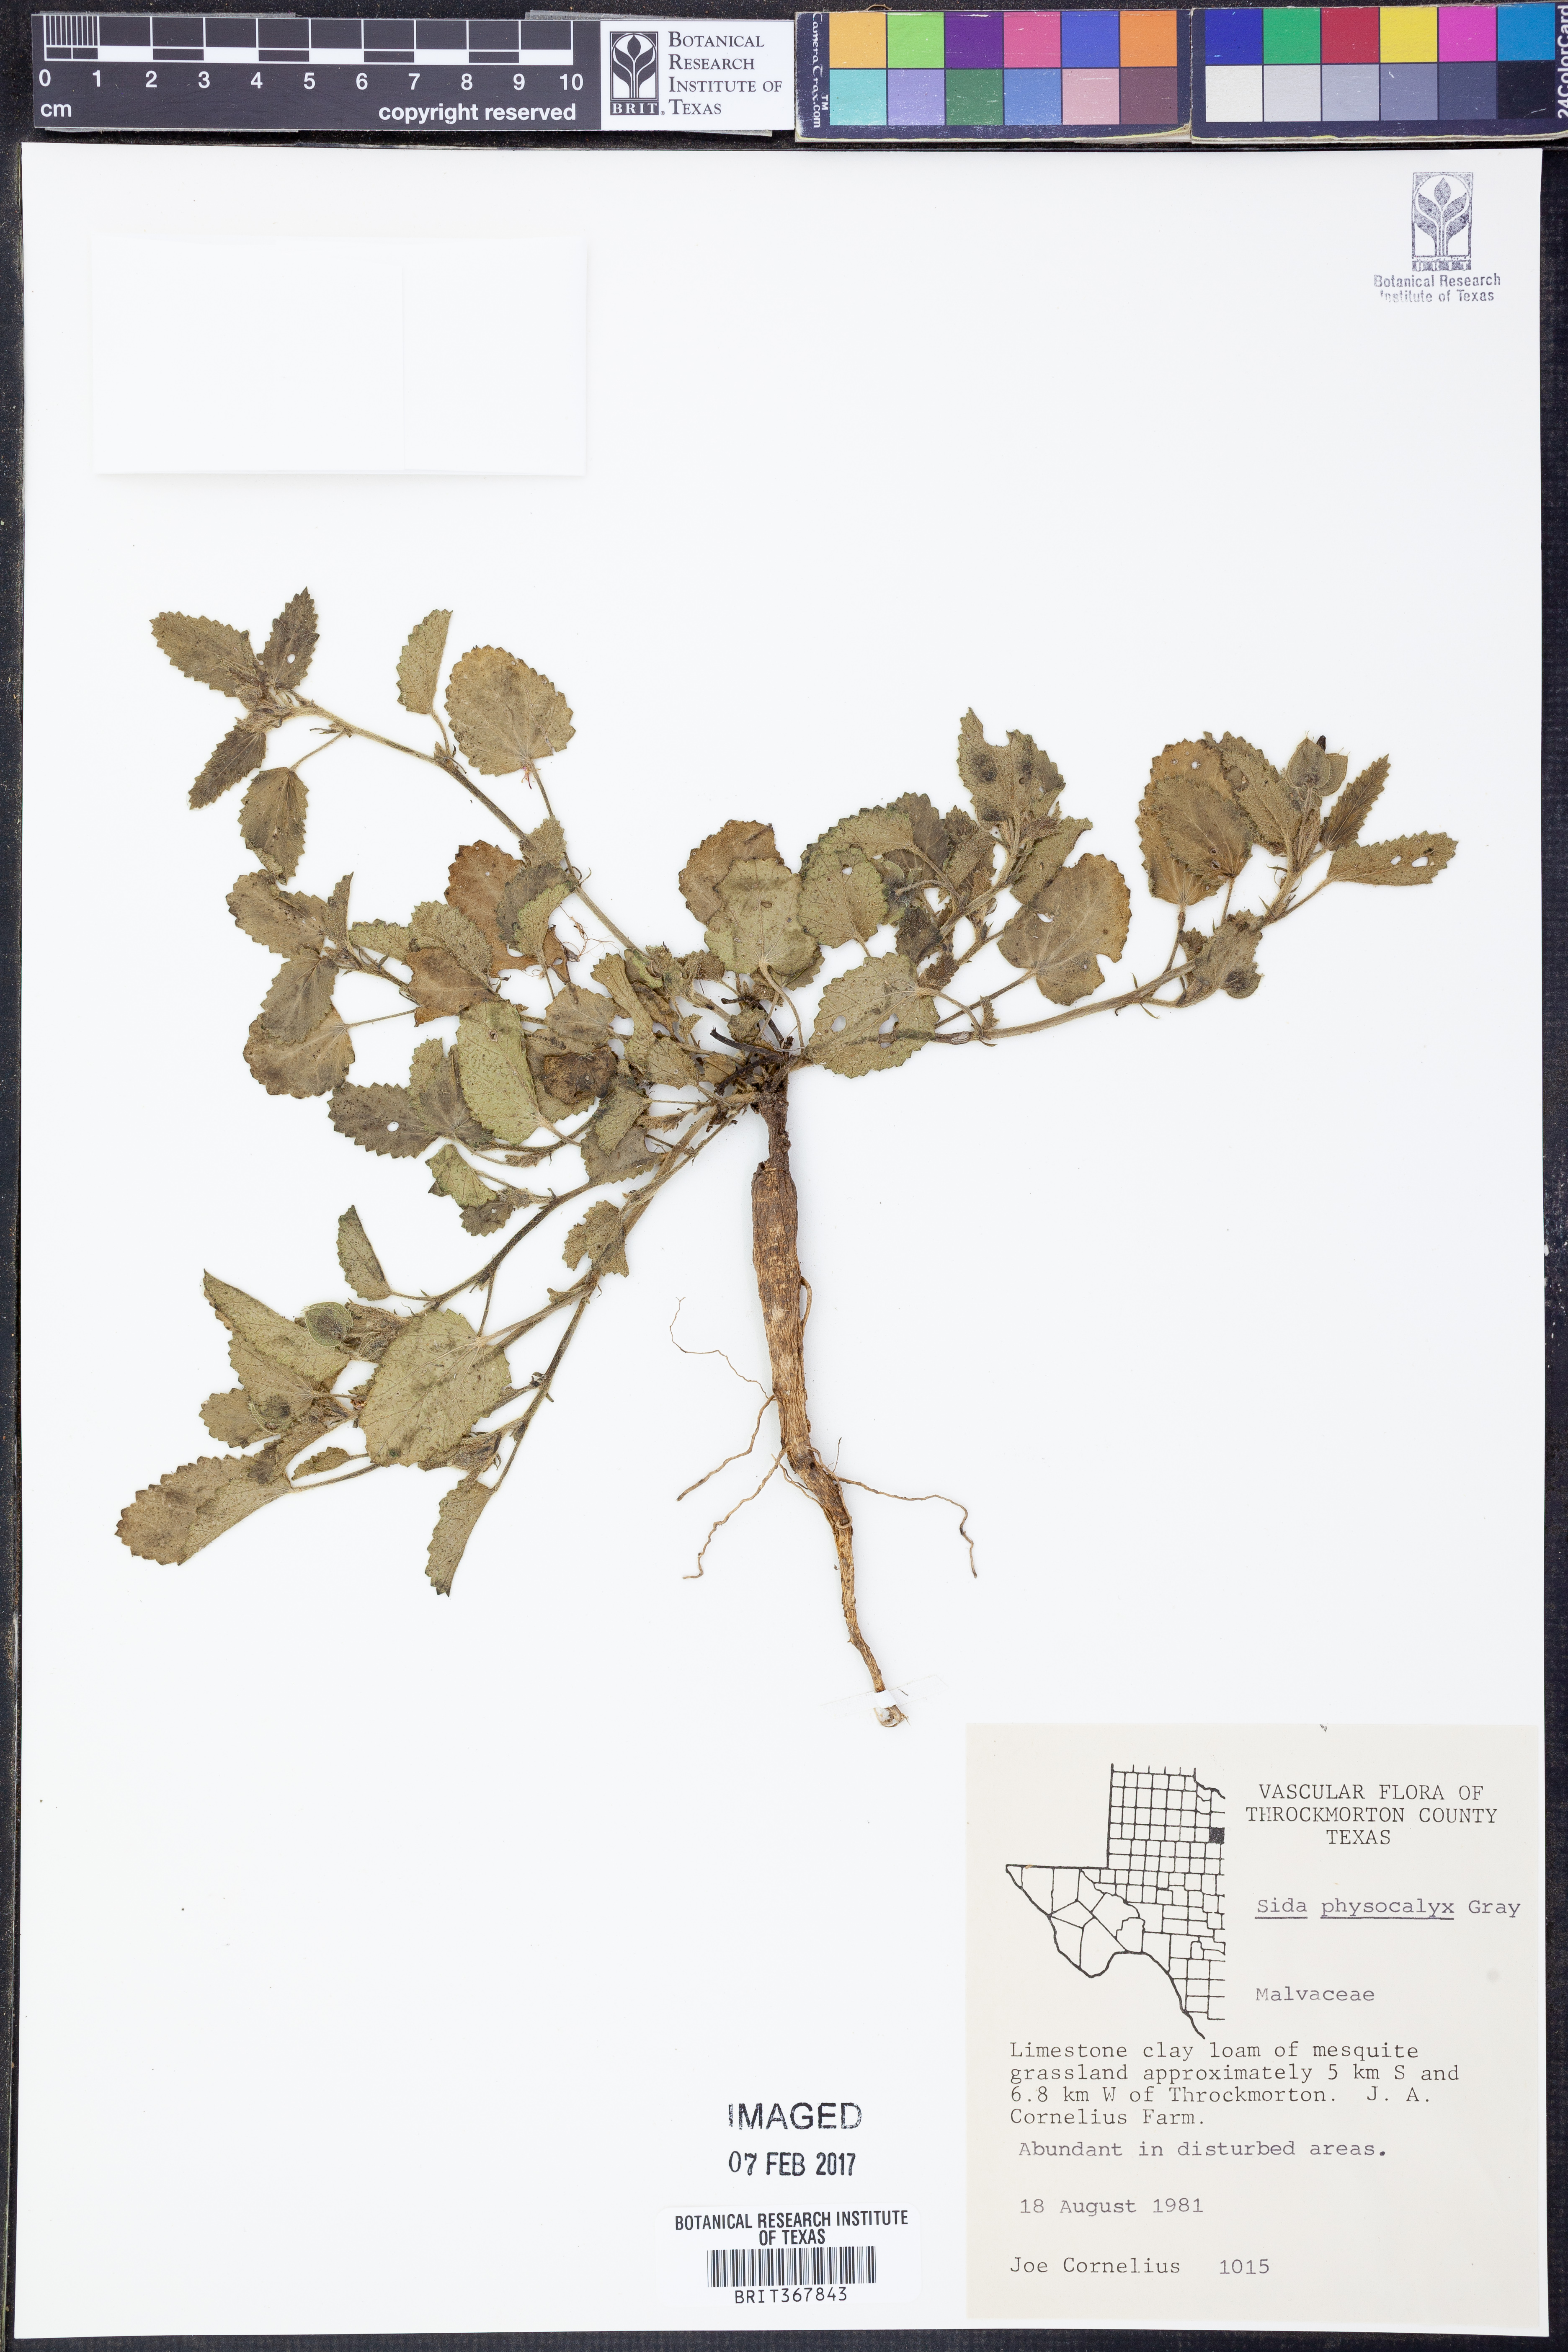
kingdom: Plantae
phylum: Tracheophyta
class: Magnoliopsida
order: Malvales
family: Malvaceae
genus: Rhynchosida
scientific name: Rhynchosida physocalyx
